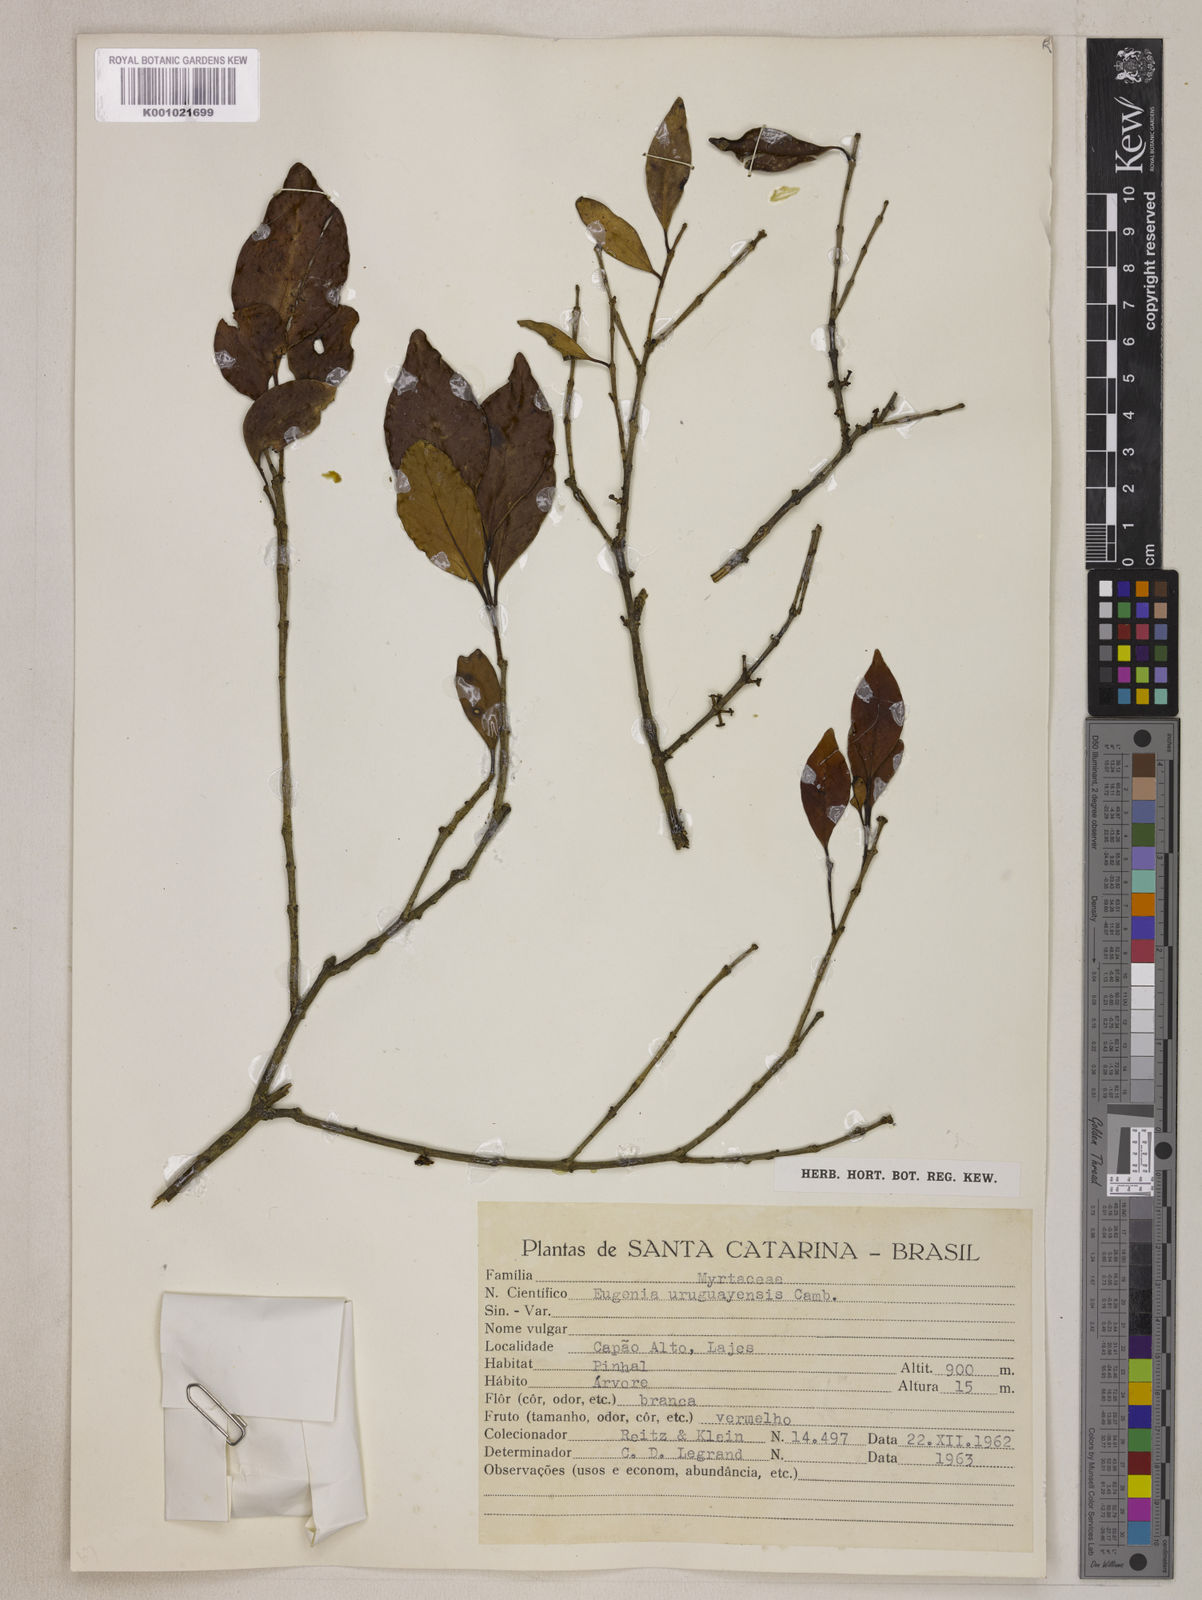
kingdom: Plantae
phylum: Tracheophyta
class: Magnoliopsida
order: Myrtales
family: Myrtaceae
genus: Eugenia
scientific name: Eugenia uruguayensis
